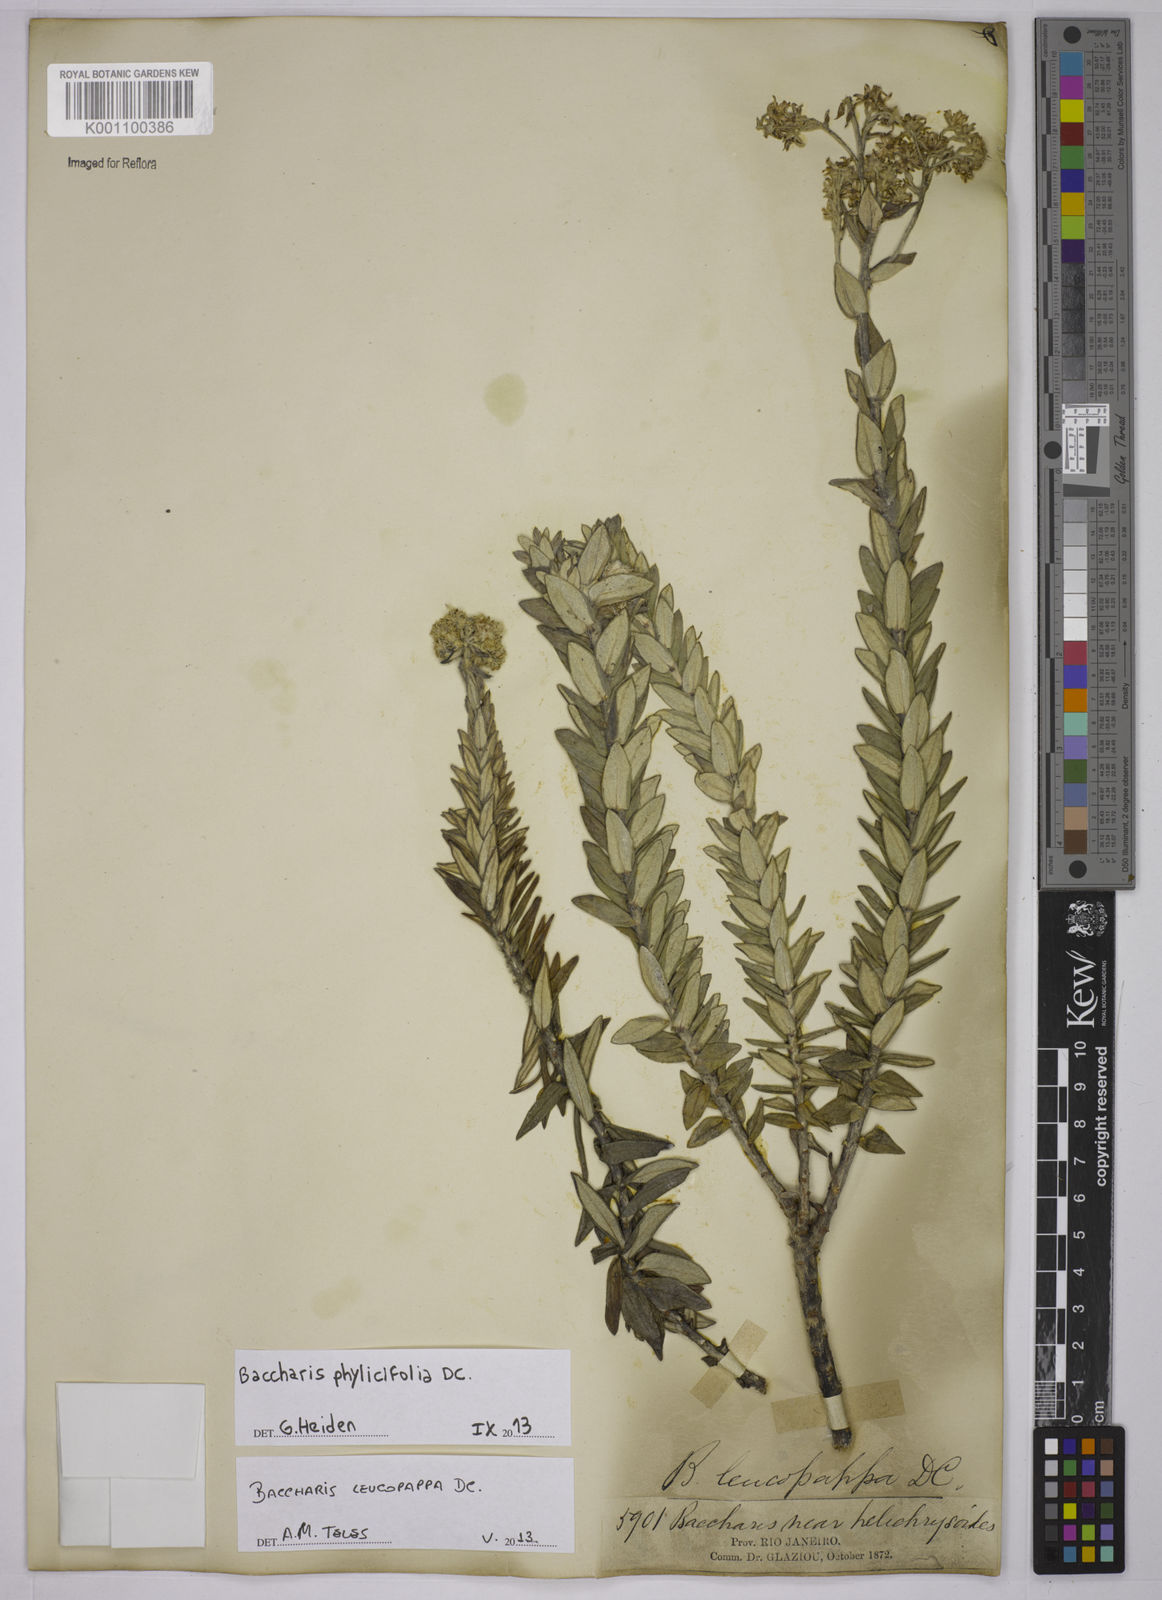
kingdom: Plantae
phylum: Tracheophyta
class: Magnoliopsida
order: Asterales
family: Asteraceae
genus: Baccharis
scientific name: Baccharis leucopappa
